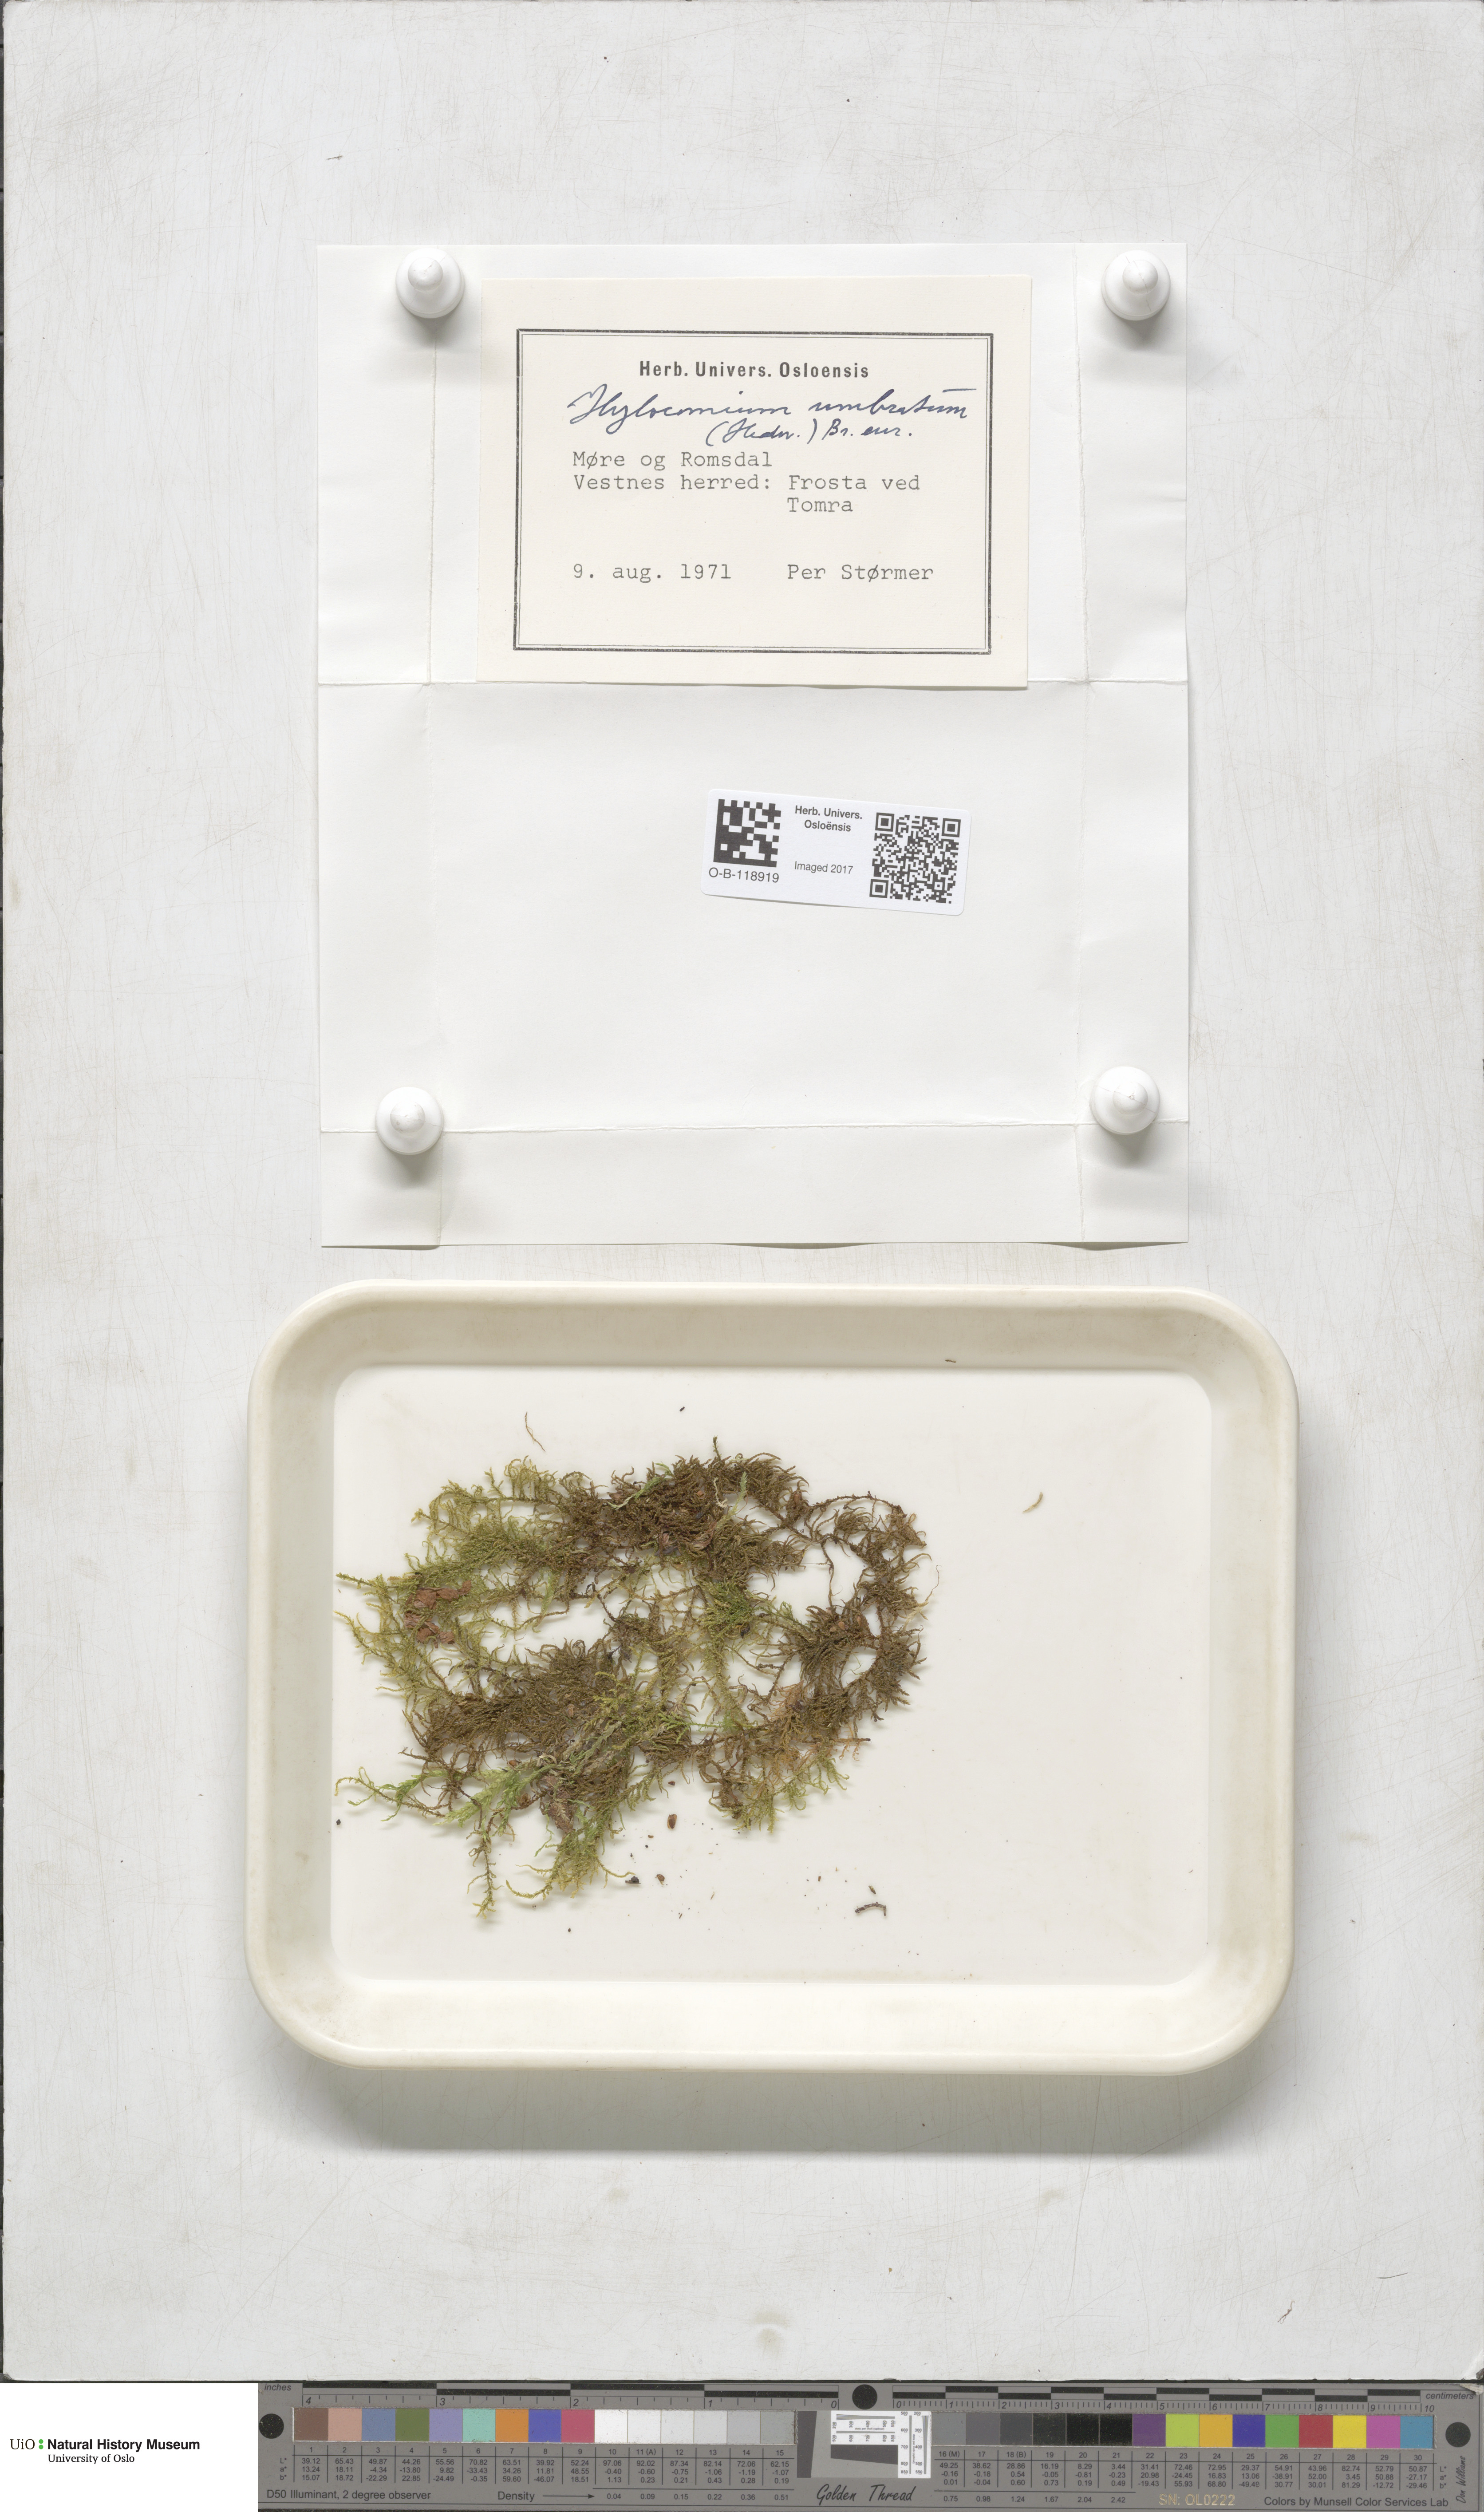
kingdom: Plantae
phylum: Bryophyta
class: Bryopsida
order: Hypnales
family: Hylocomiaceae
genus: Hylocomiastrum
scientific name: Hylocomiastrum umbratum
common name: Shaded woods moss
